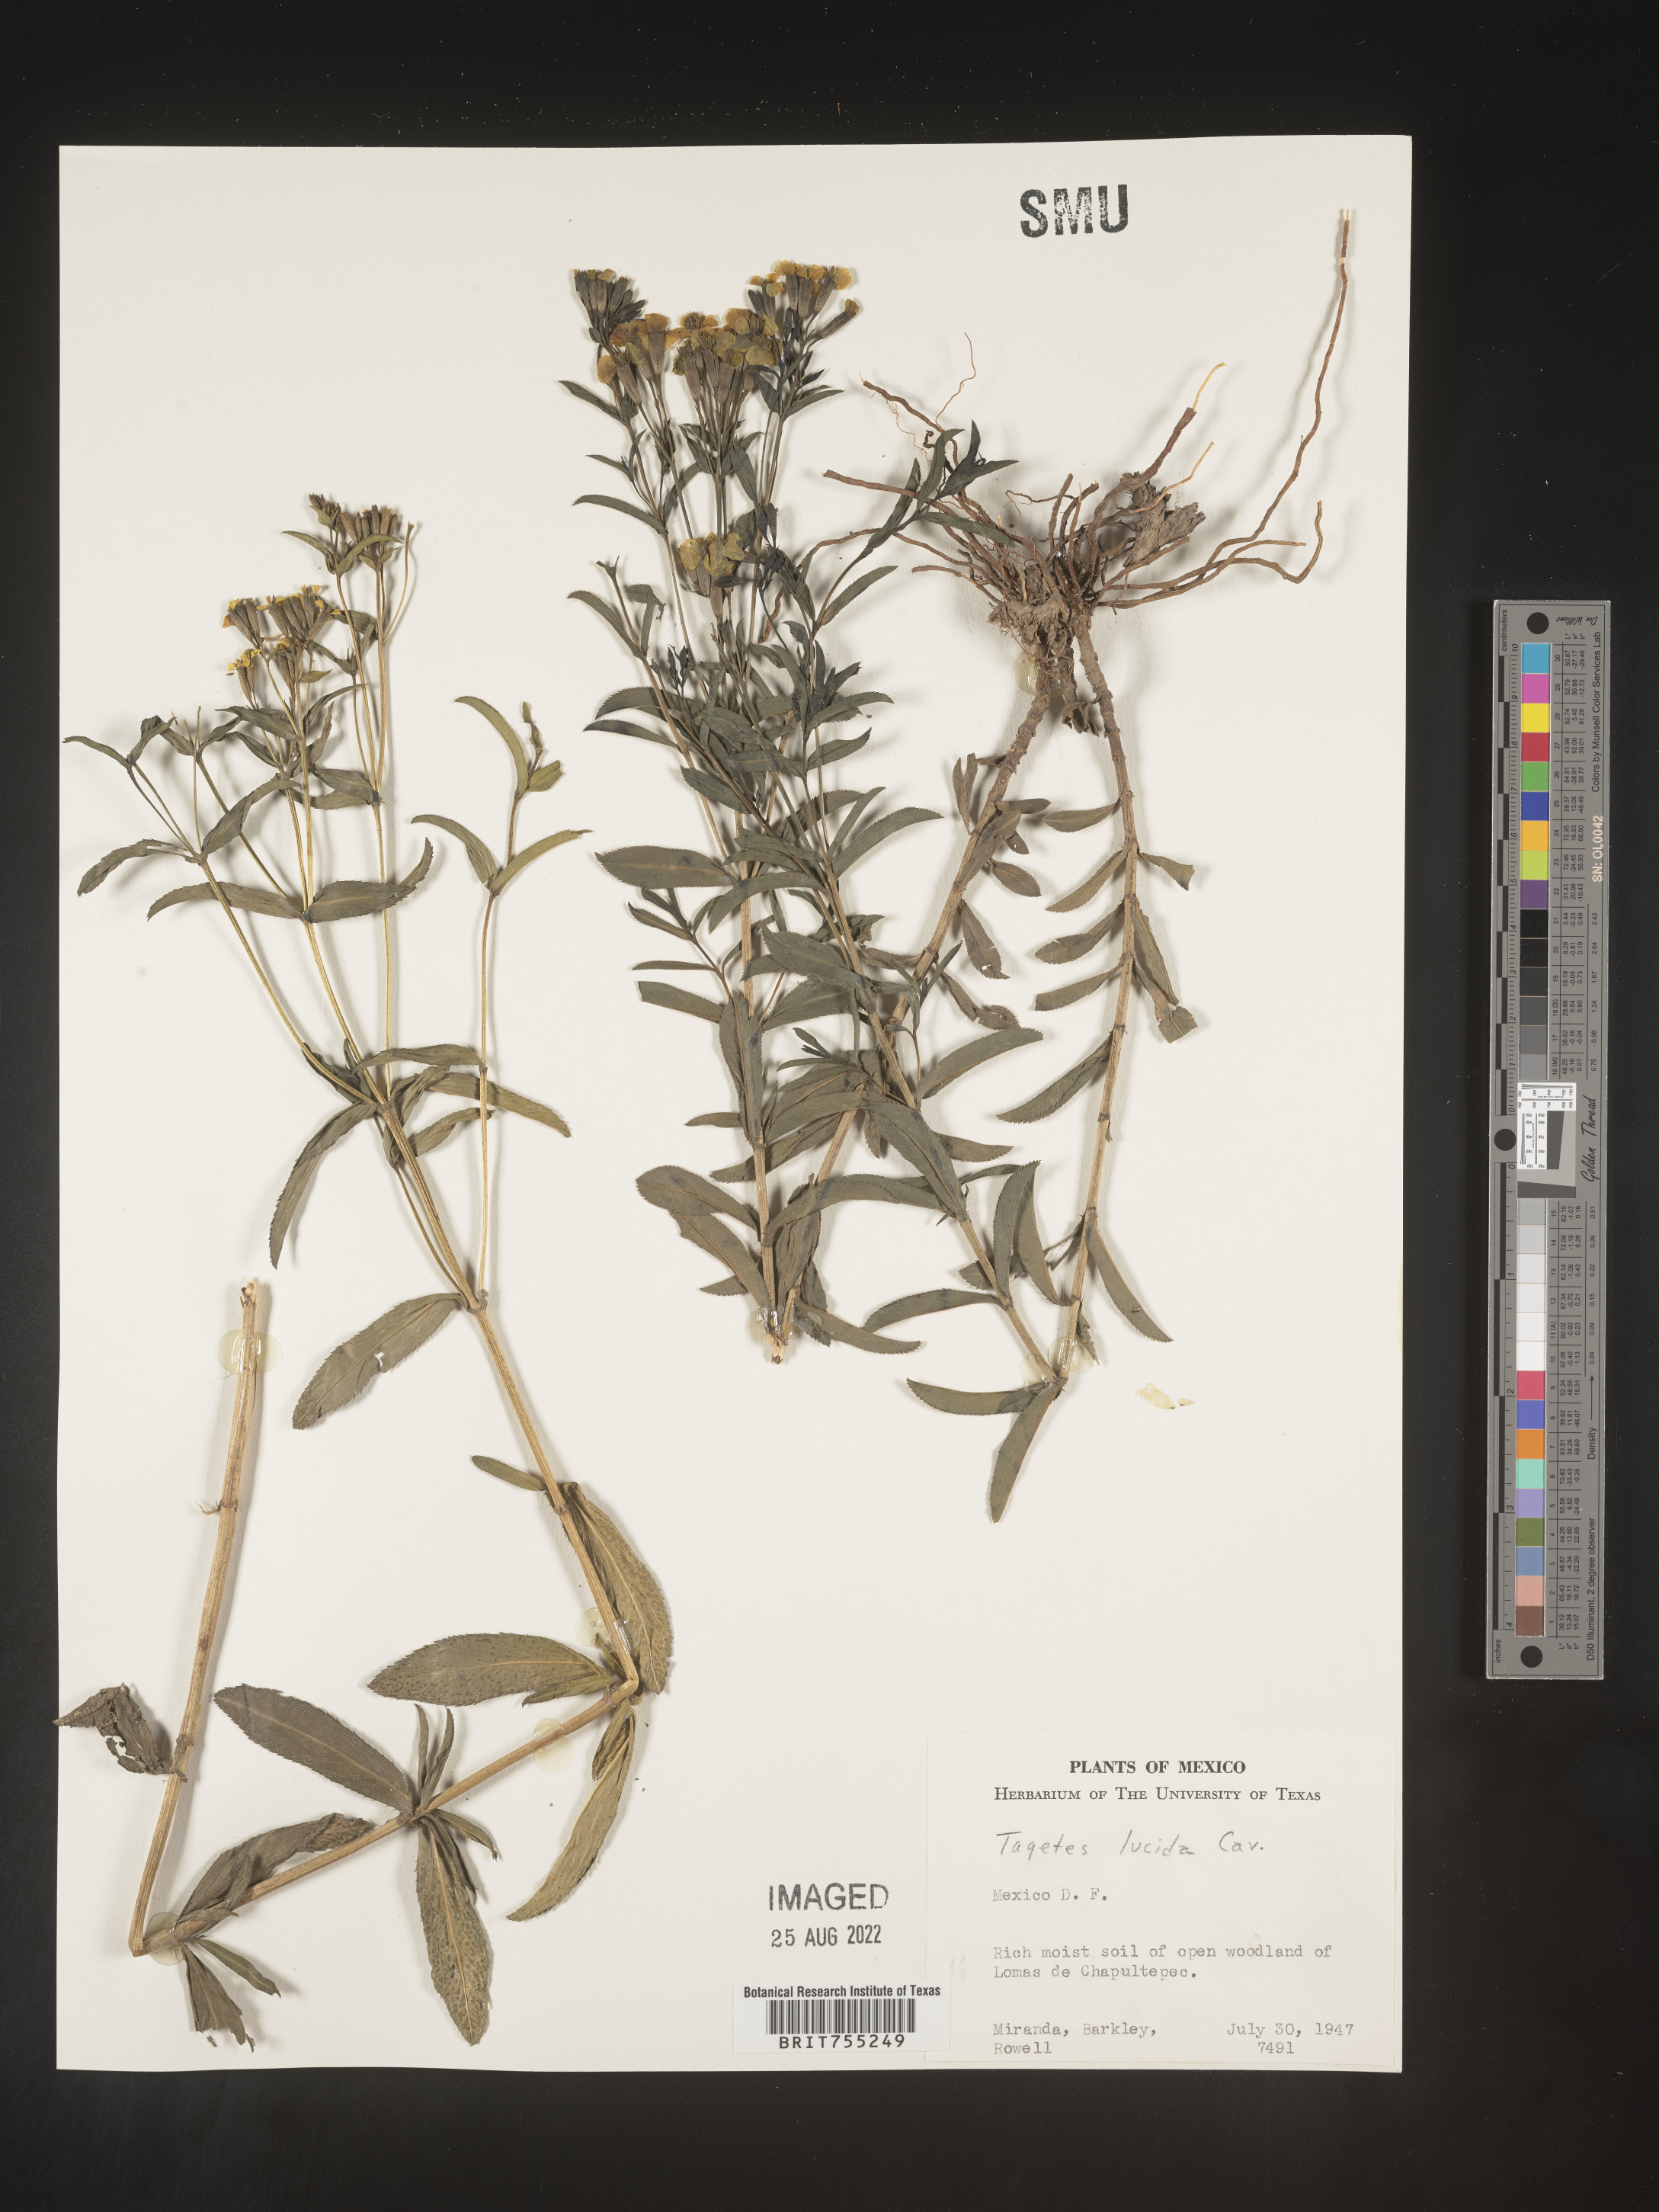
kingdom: Plantae
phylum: Tracheophyta
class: Magnoliopsida
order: Asterales
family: Asteraceae
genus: Tagetes
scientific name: Tagetes lucida
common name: Sweetscented marigold
